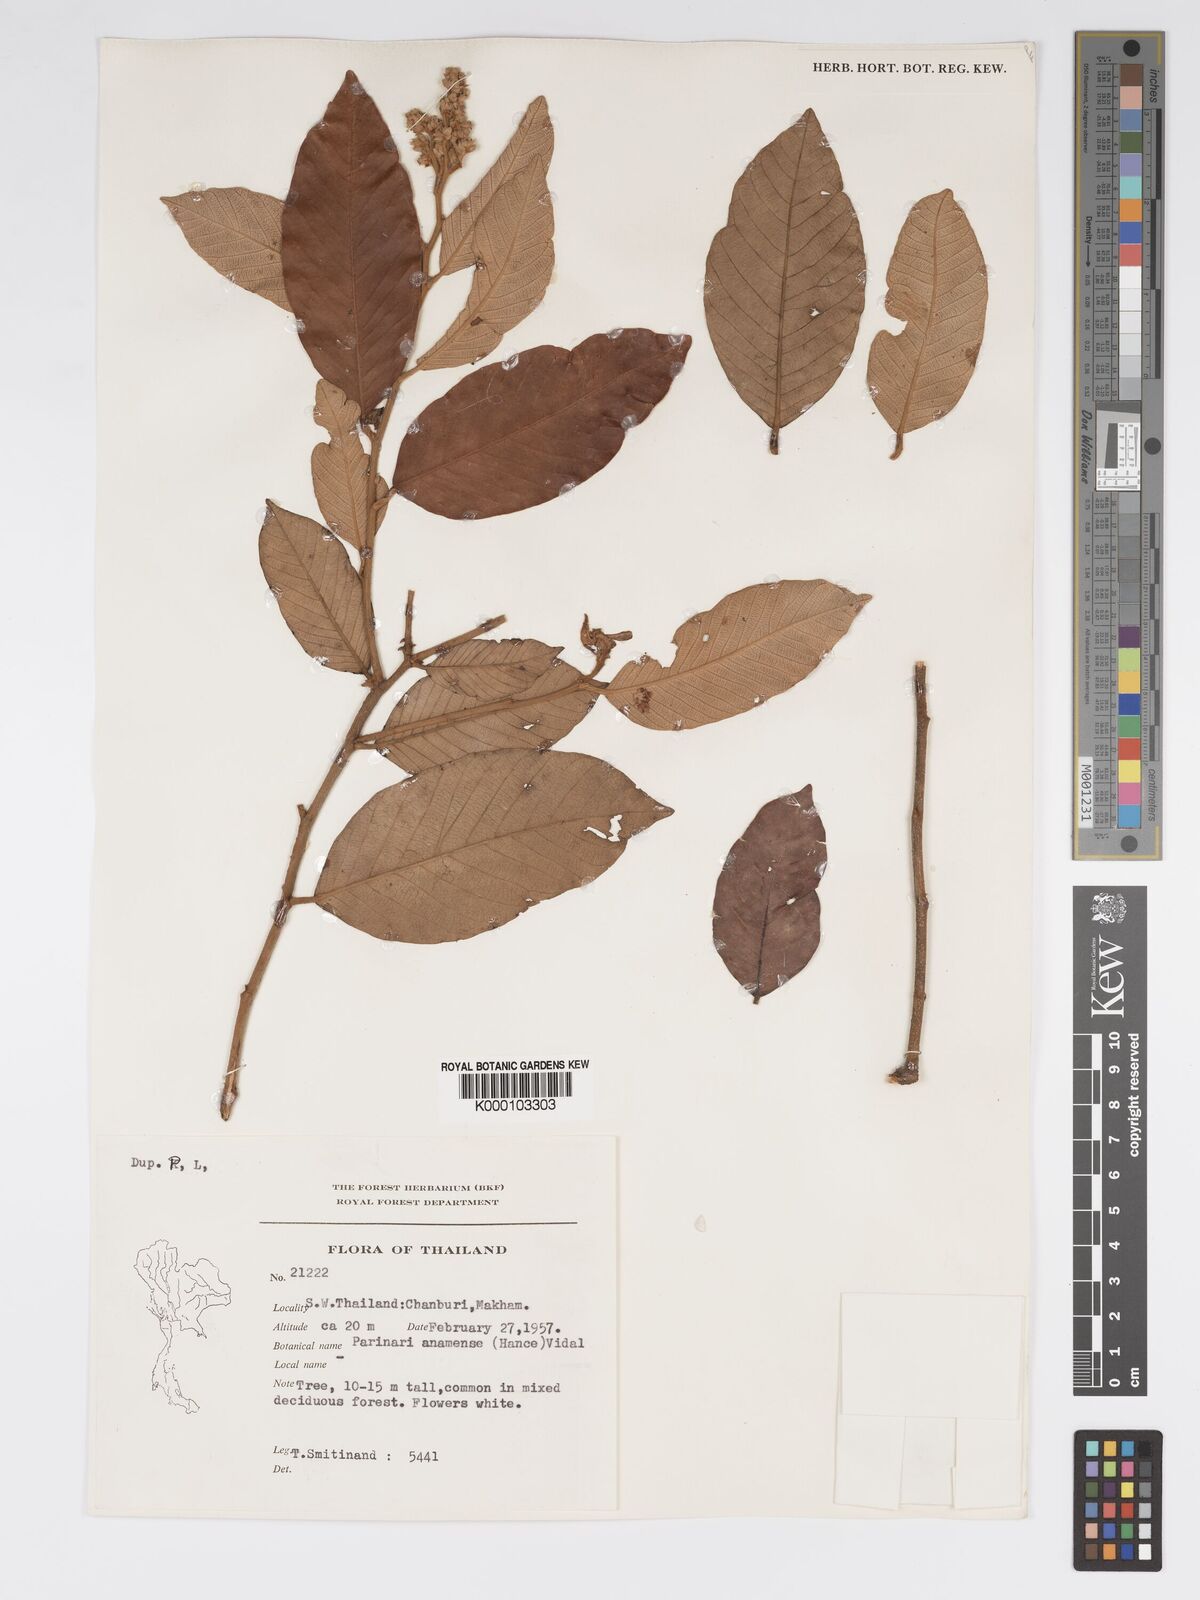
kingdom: Plantae
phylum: Tracheophyta
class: Magnoliopsida
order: Malpighiales
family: Chrysobalanaceae
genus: Parinari
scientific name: Parinari anamensis
